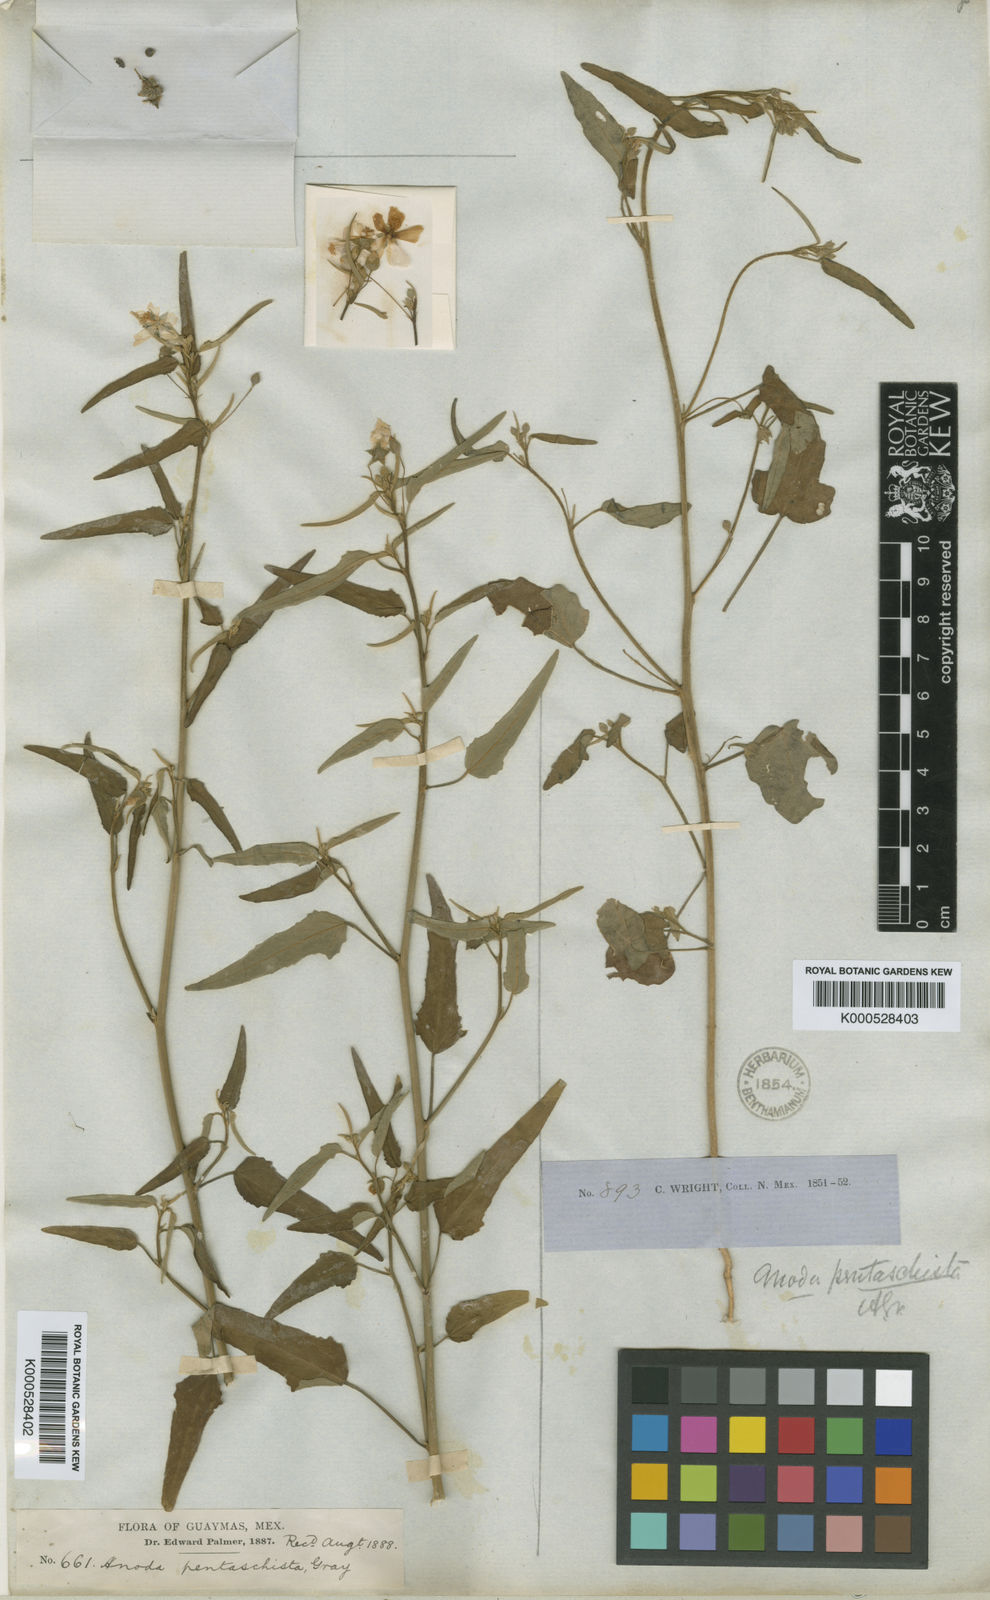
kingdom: Plantae
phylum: Tracheophyta
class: Magnoliopsida
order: Malvales
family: Malvaceae
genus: Anoda
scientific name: Anoda pentaschista
